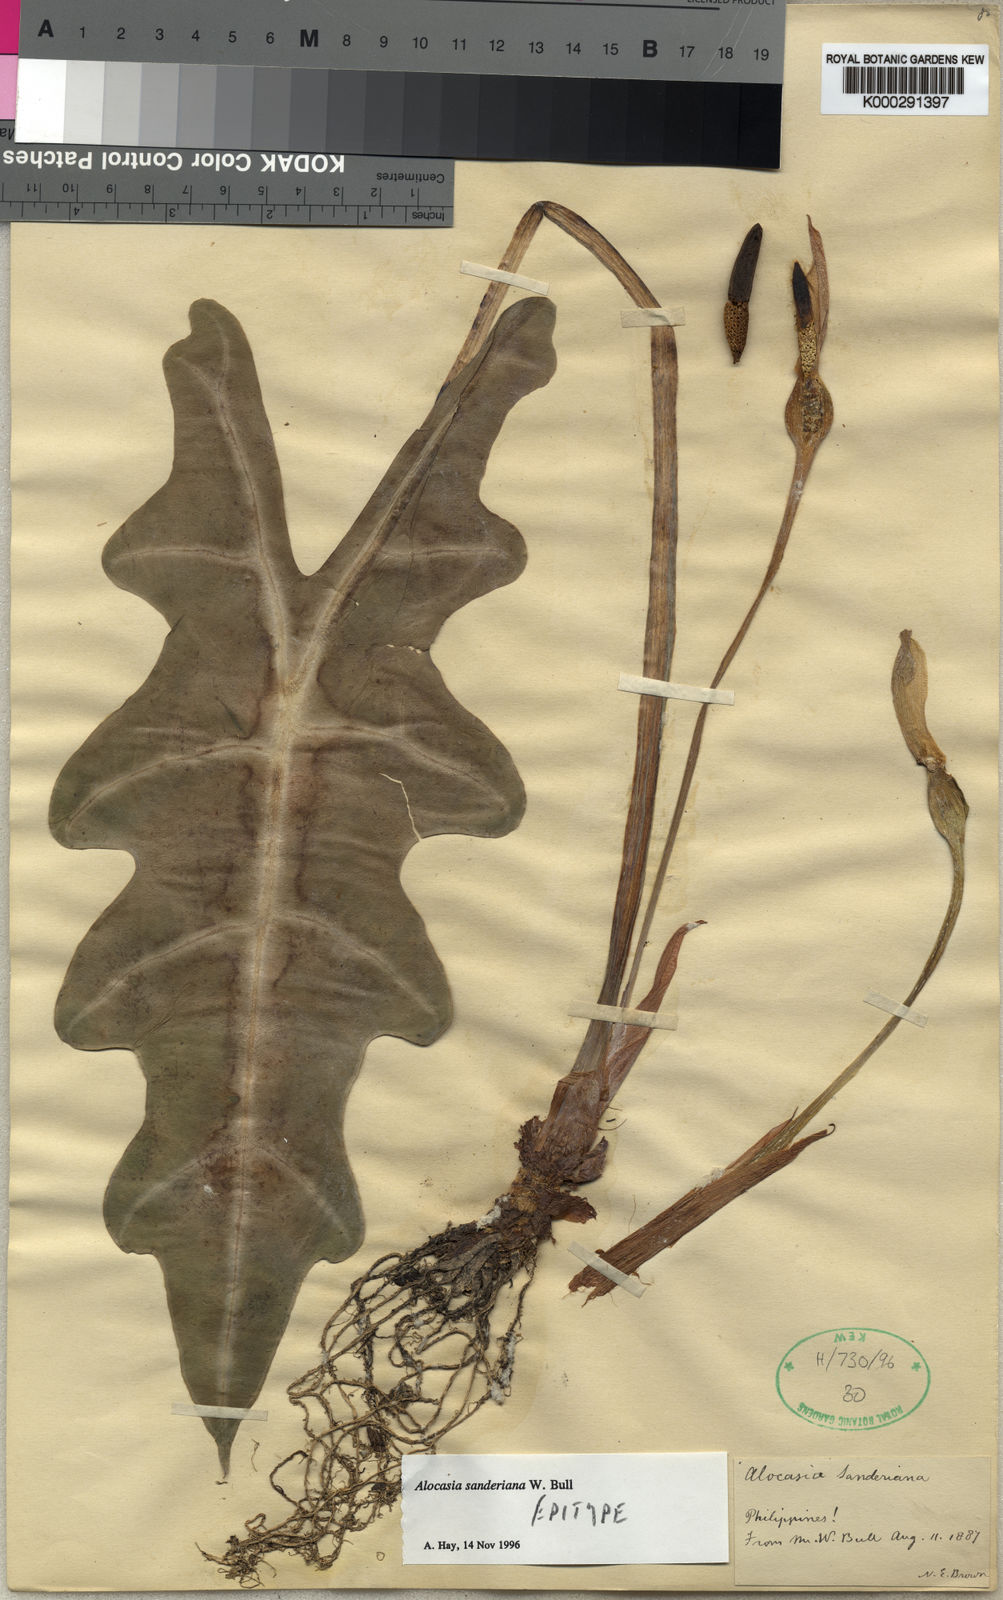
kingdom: Plantae
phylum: Tracheophyta
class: Liliopsida
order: Alismatales
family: Araceae
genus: Alocasia
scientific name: Alocasia sanderiana
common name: Sander's alocasia
